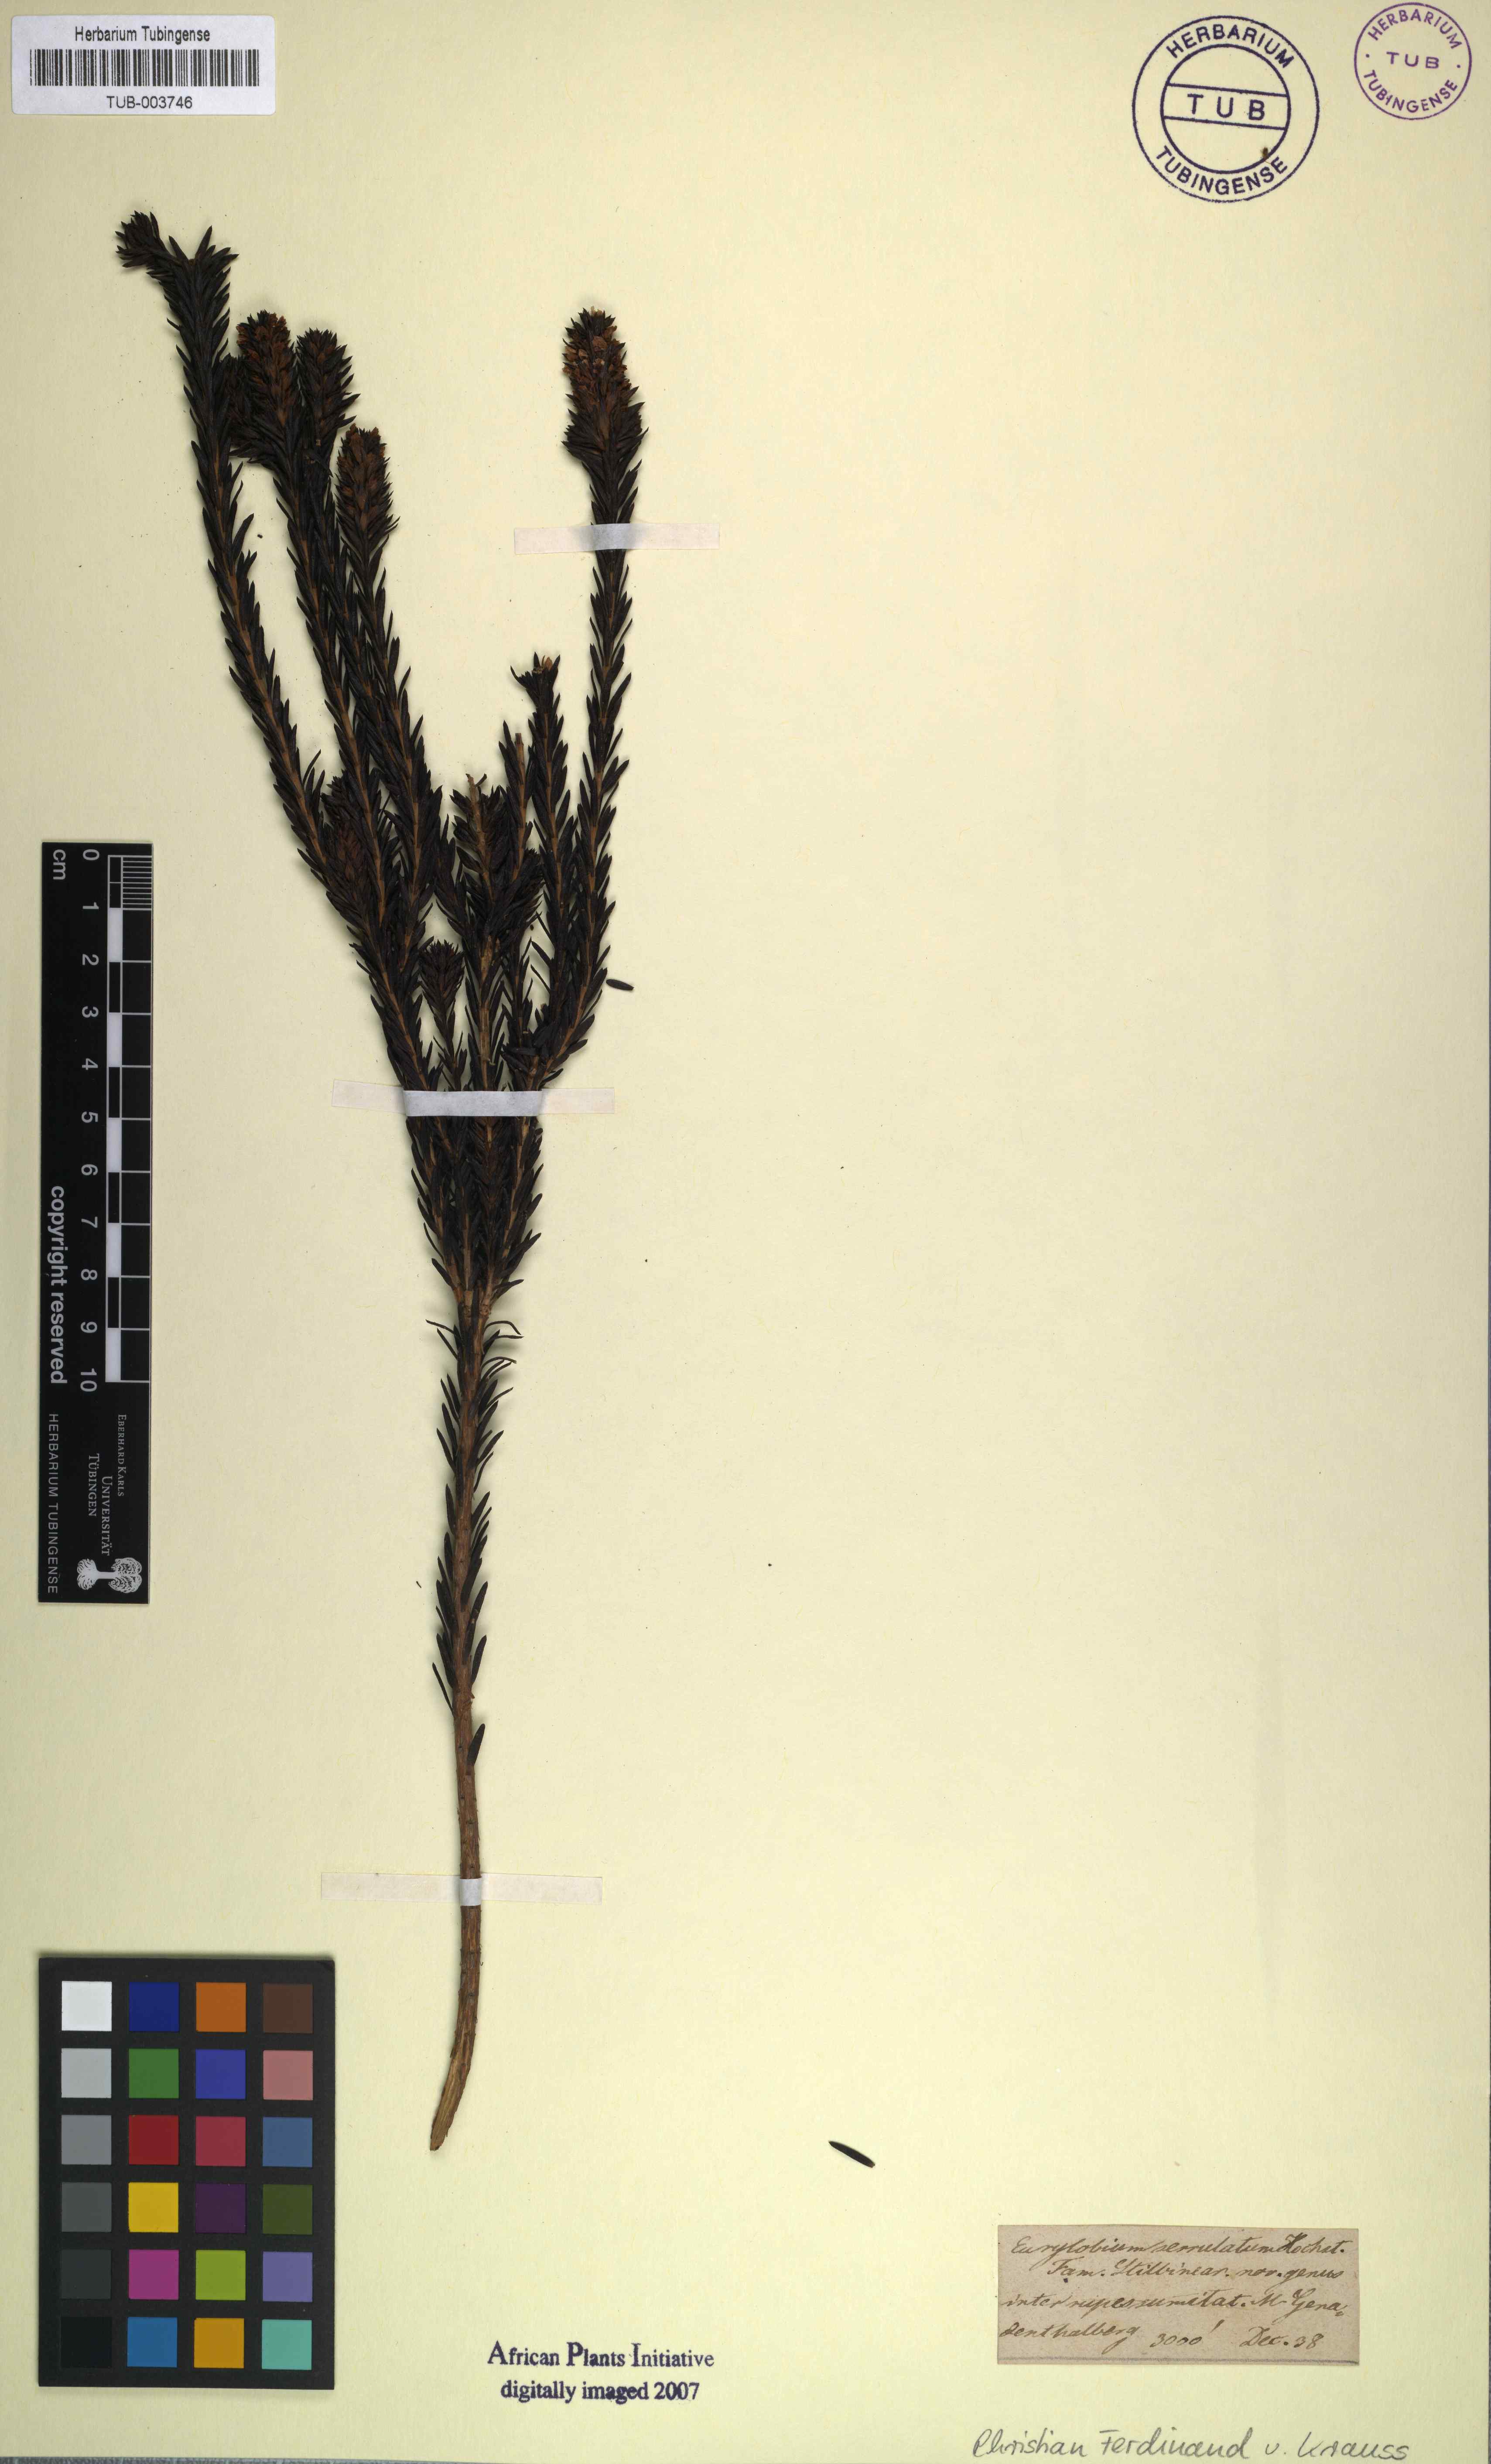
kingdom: Plantae
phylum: Tracheophyta
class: Magnoliopsida
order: Lamiales
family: Stilbaceae
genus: Stilbe
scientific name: Stilbe serrulata
